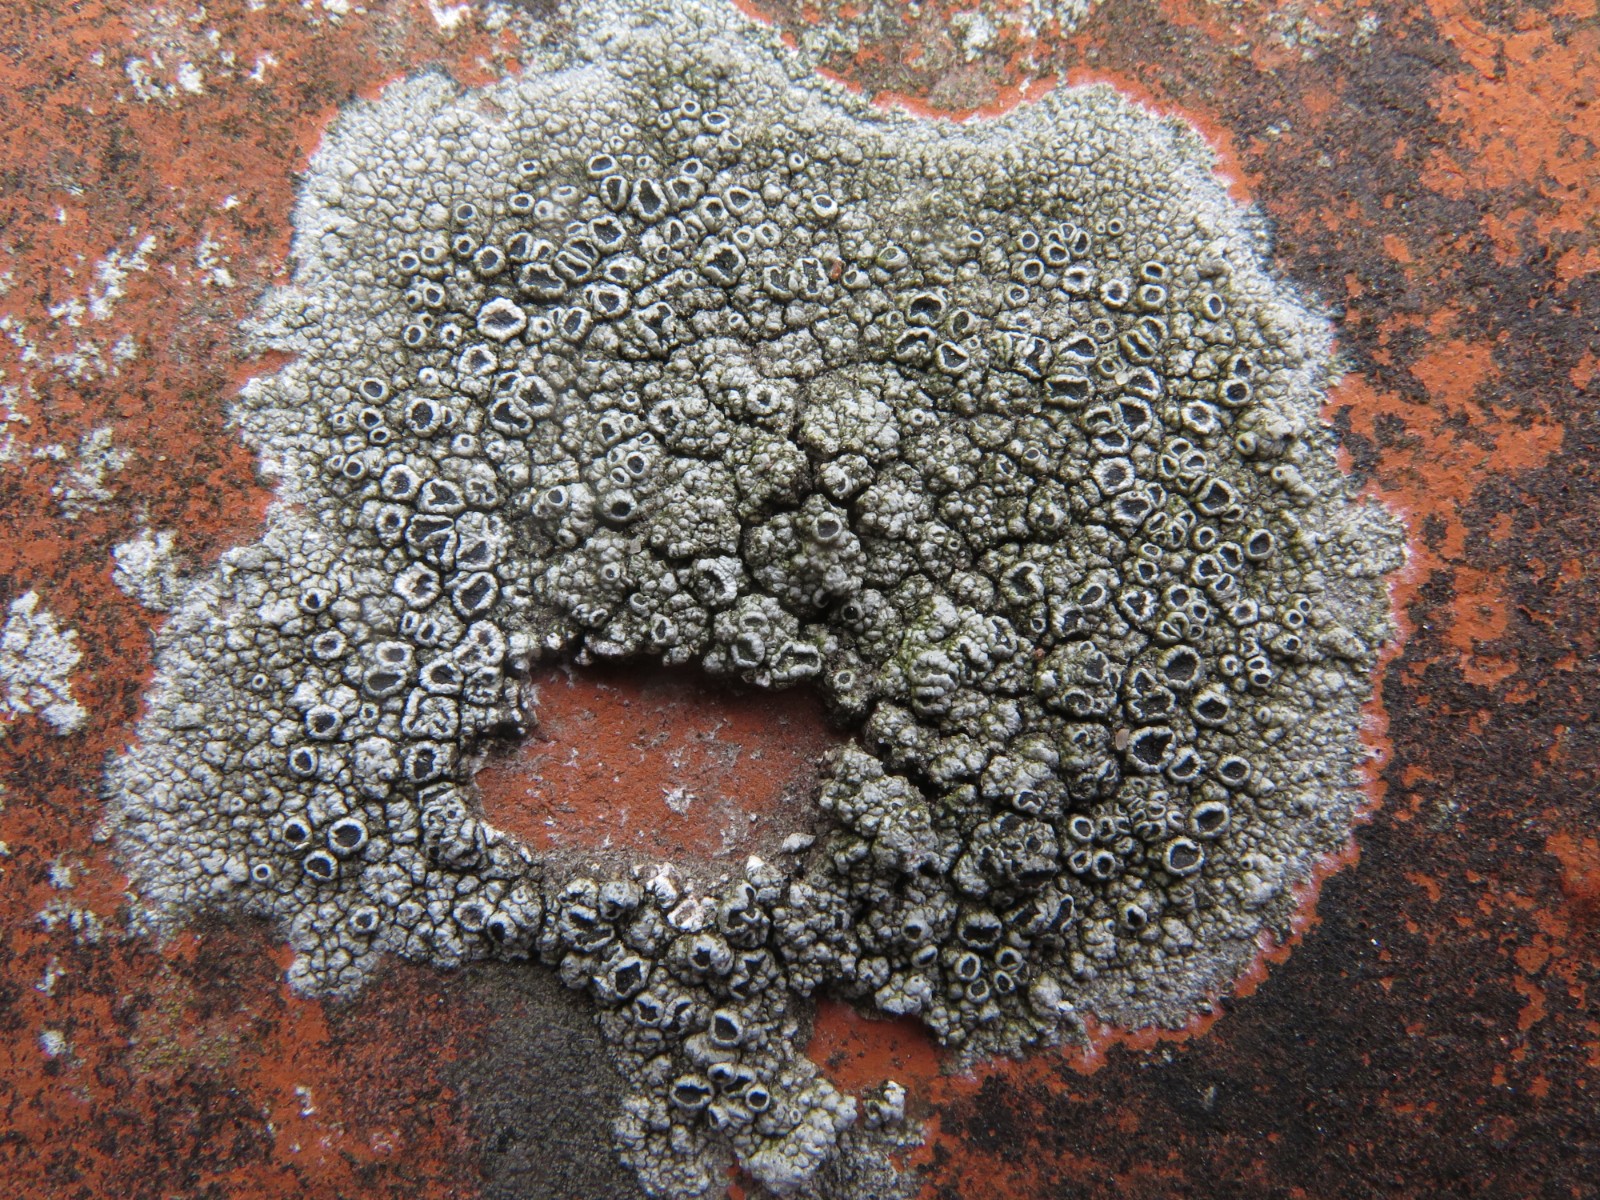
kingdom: Fungi
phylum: Ascomycota
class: Lecanoromycetes
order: Lecanorales
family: Tephromelataceae
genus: Tephromela
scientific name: Tephromela atra
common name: sortfrugtet kantskivelav
